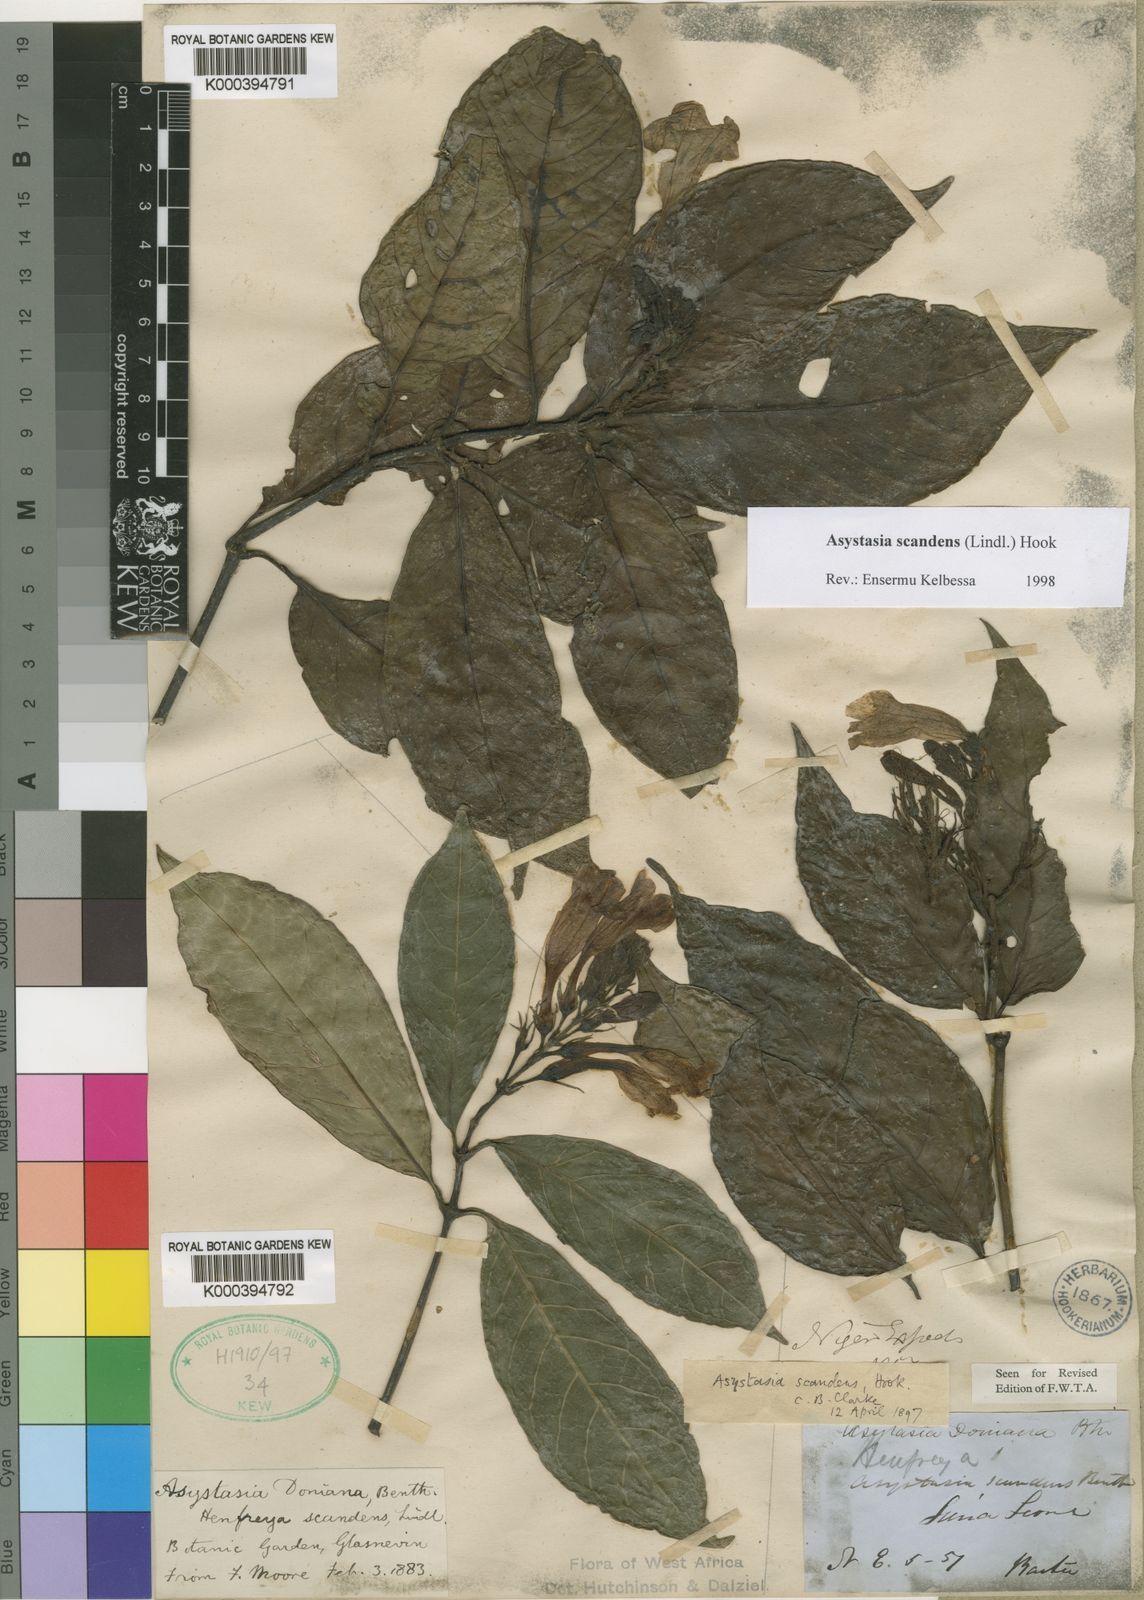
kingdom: Plantae
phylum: Tracheophyta
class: Magnoliopsida
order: Lamiales
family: Acanthaceae
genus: Asystasia
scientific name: Asystasia scandens
